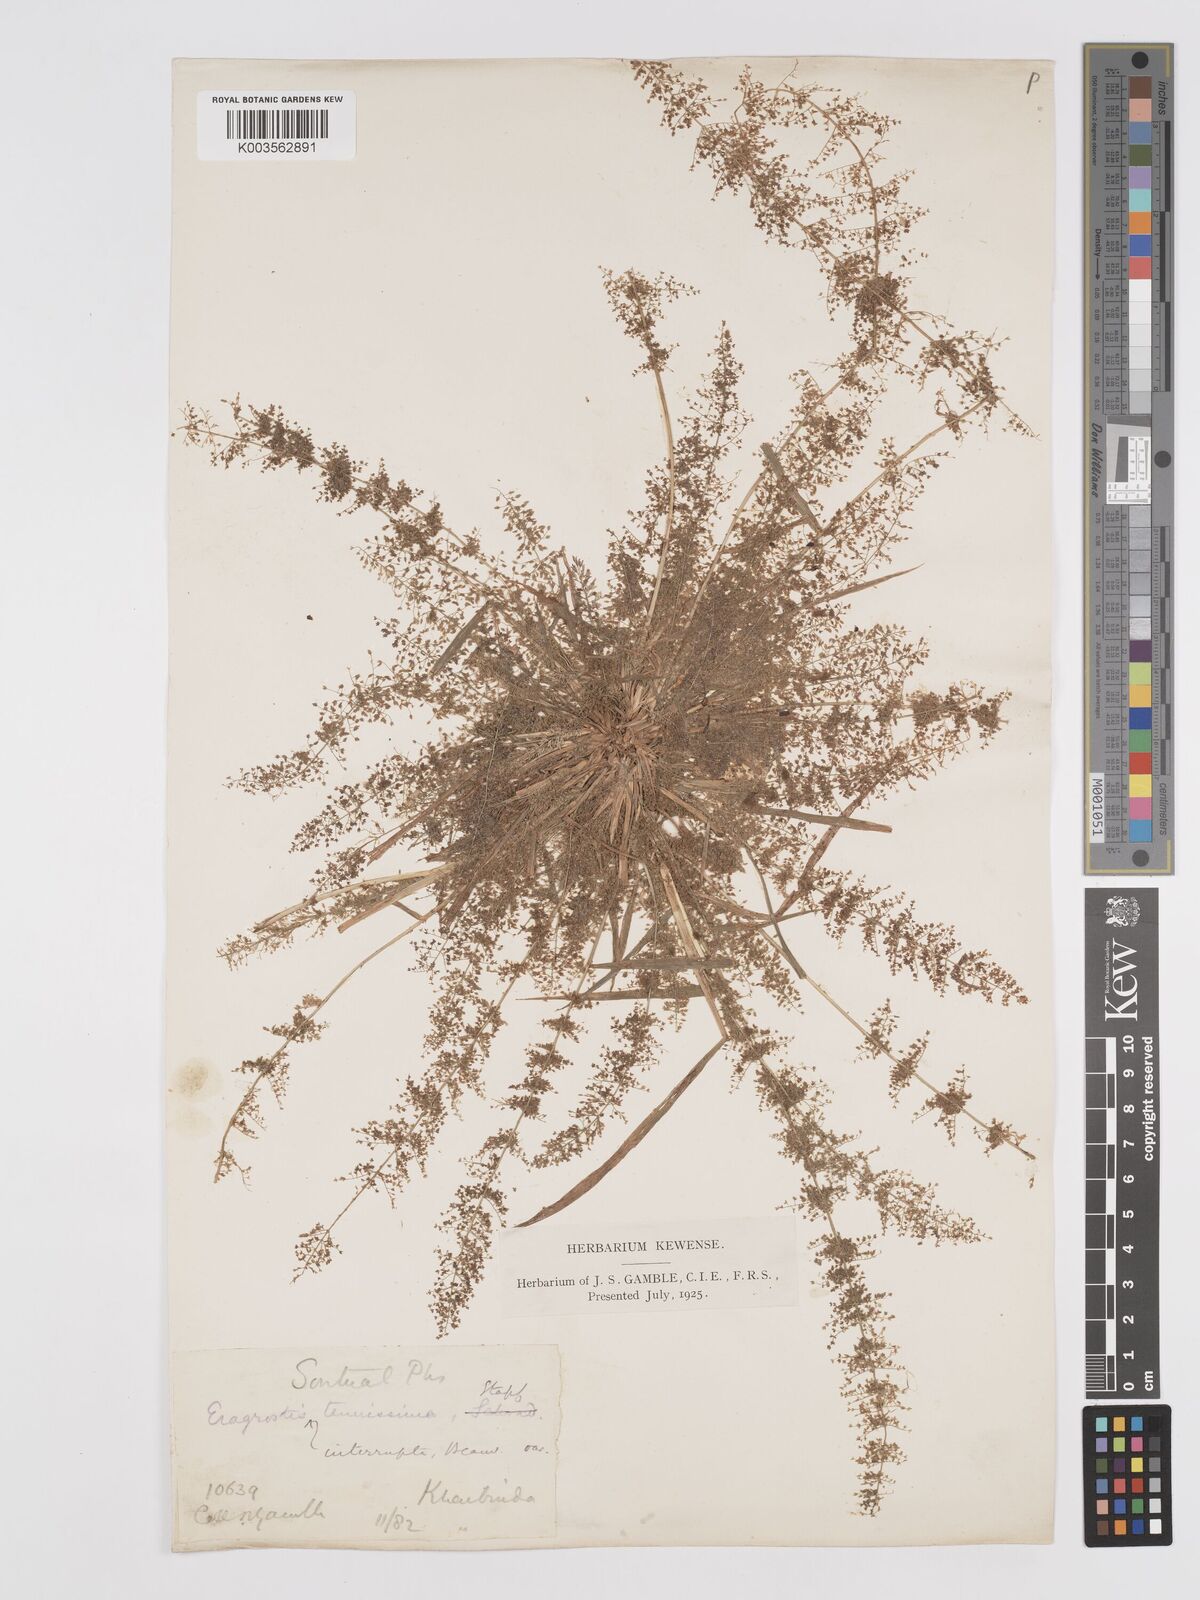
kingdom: Plantae
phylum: Tracheophyta
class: Liliopsida
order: Poales
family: Poaceae
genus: Eragrostis
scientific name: Eragrostis japonica
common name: Pond lovegrass
